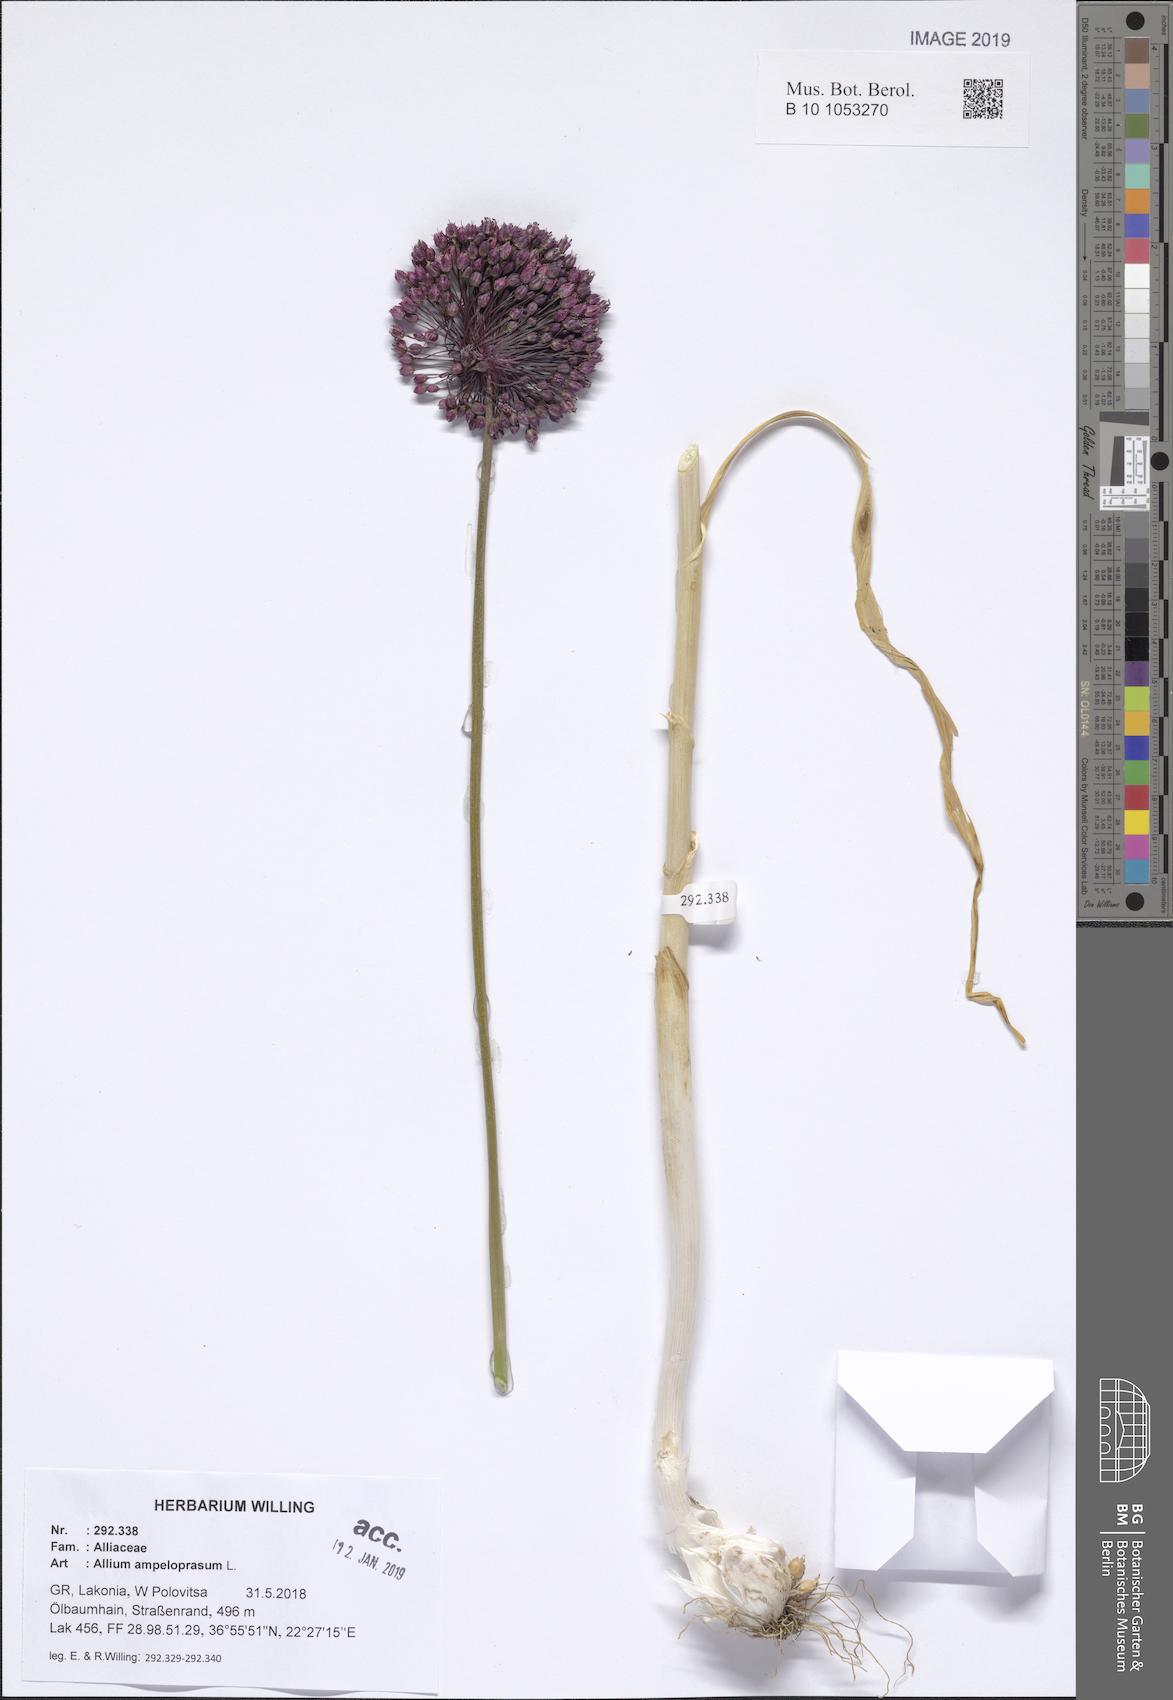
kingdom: Plantae
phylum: Tracheophyta
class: Liliopsida
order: Asparagales
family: Amaryllidaceae
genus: Allium
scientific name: Allium ampeloprasum
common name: Wild leek
